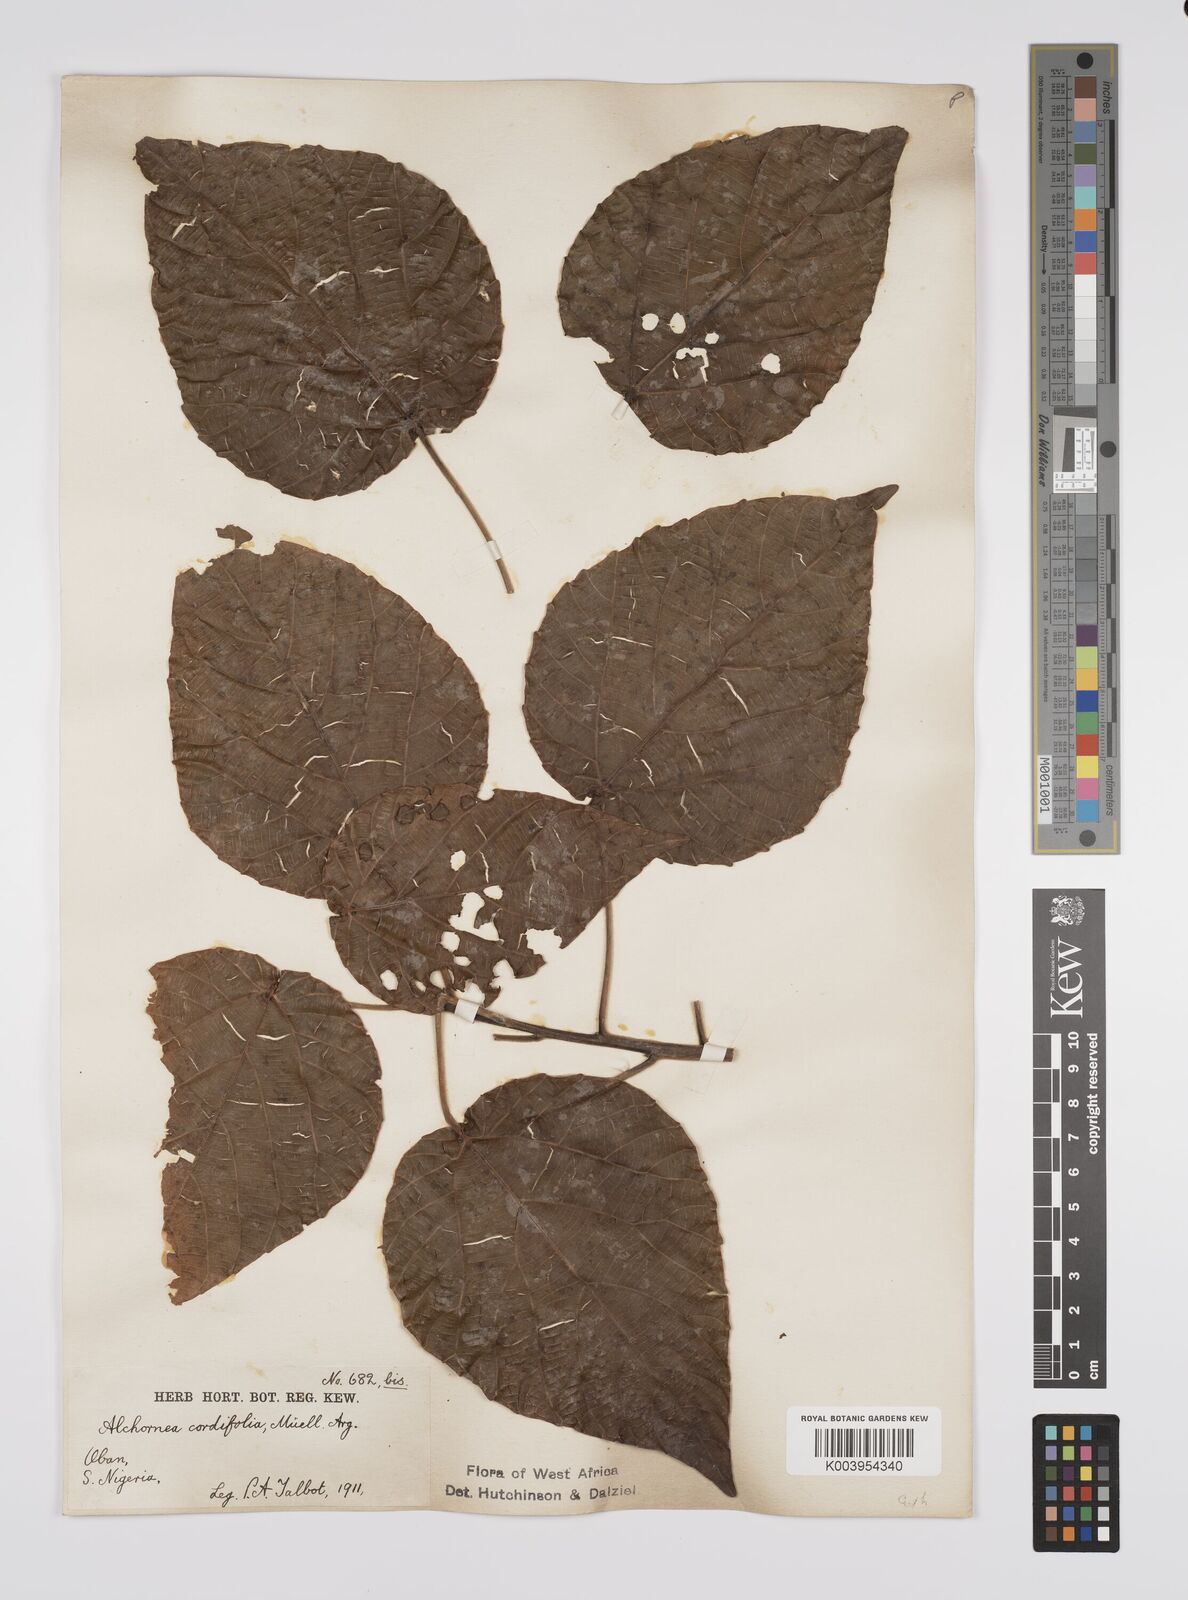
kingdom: Plantae
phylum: Tracheophyta
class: Magnoliopsida
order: Malpighiales
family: Euphorbiaceae
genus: Alchornea
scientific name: Alchornea cordifolia
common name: Christmasbush
